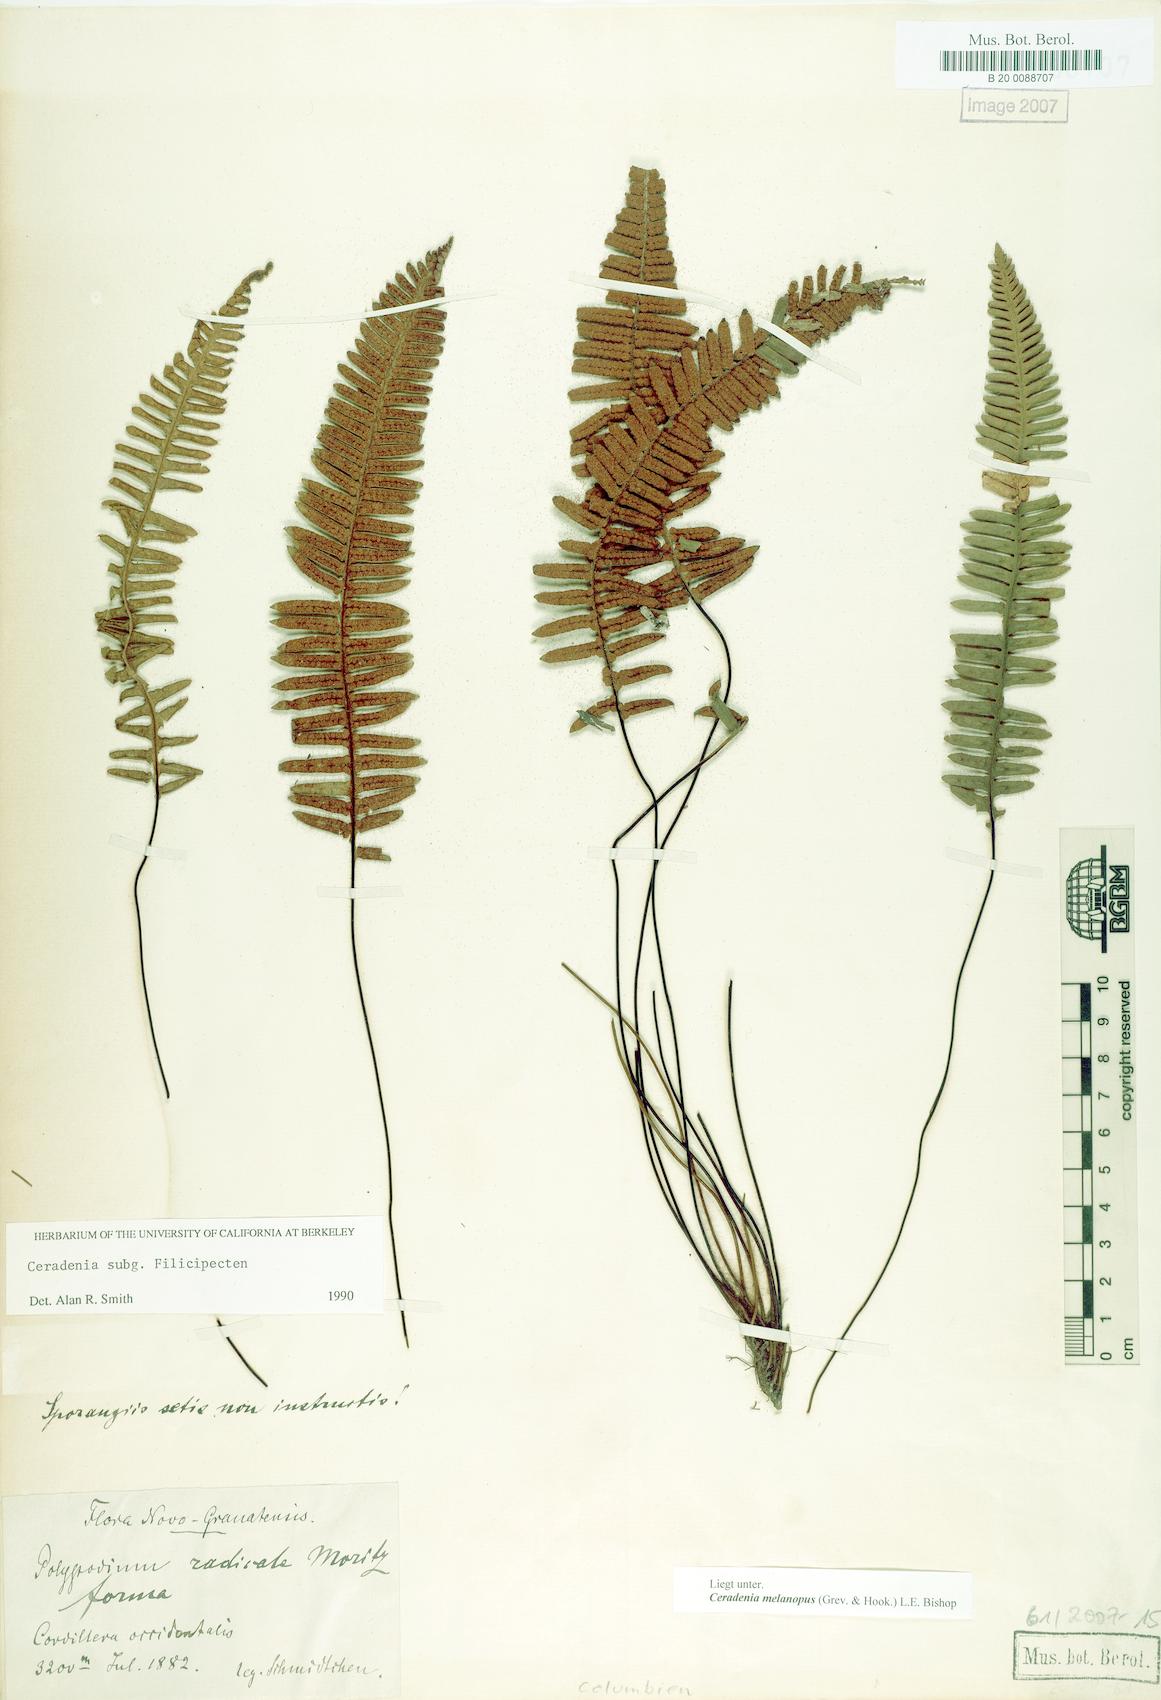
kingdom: Plantae
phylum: Tracheophyta
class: Polypodiopsida
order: Polypodiales
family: Polypodiaceae
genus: Ceradenia
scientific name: Ceradenia melanopus
